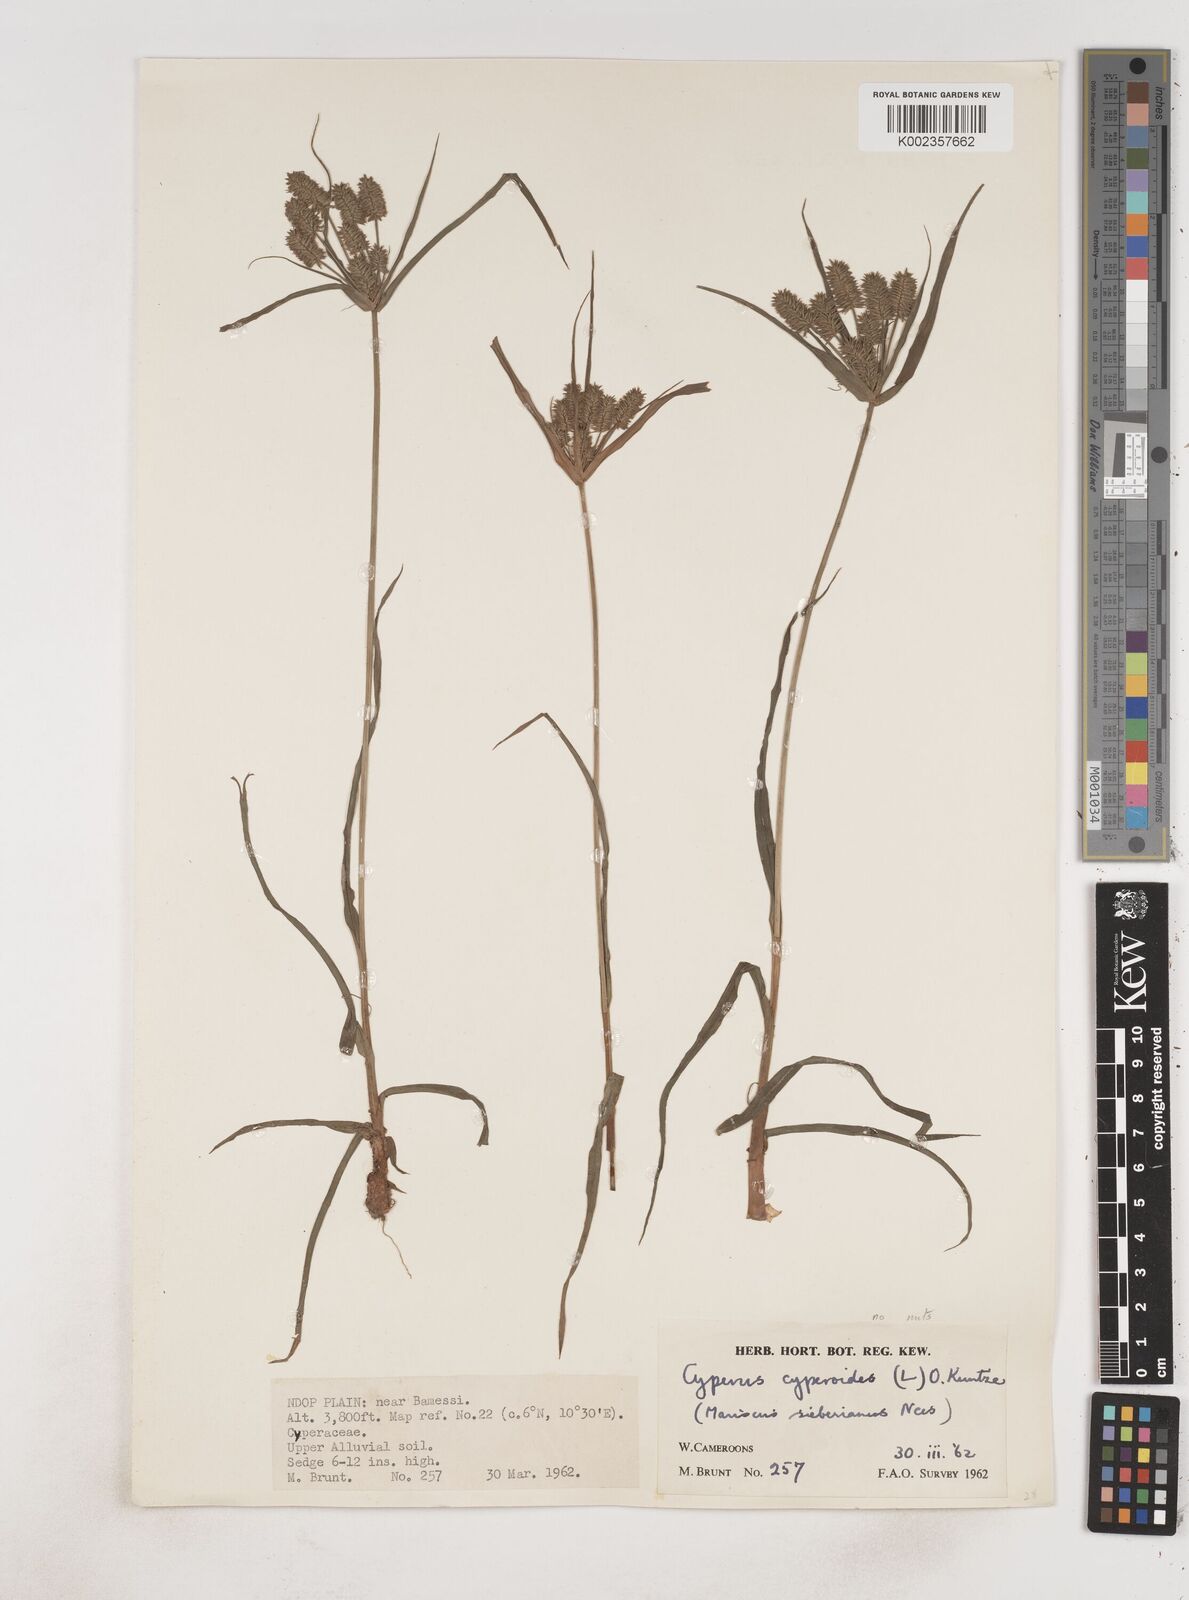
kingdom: Plantae
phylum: Tracheophyta
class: Liliopsida
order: Poales
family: Cyperaceae
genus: Cyperus
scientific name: Cyperus cyperoides
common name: Pacific island flat sedge
